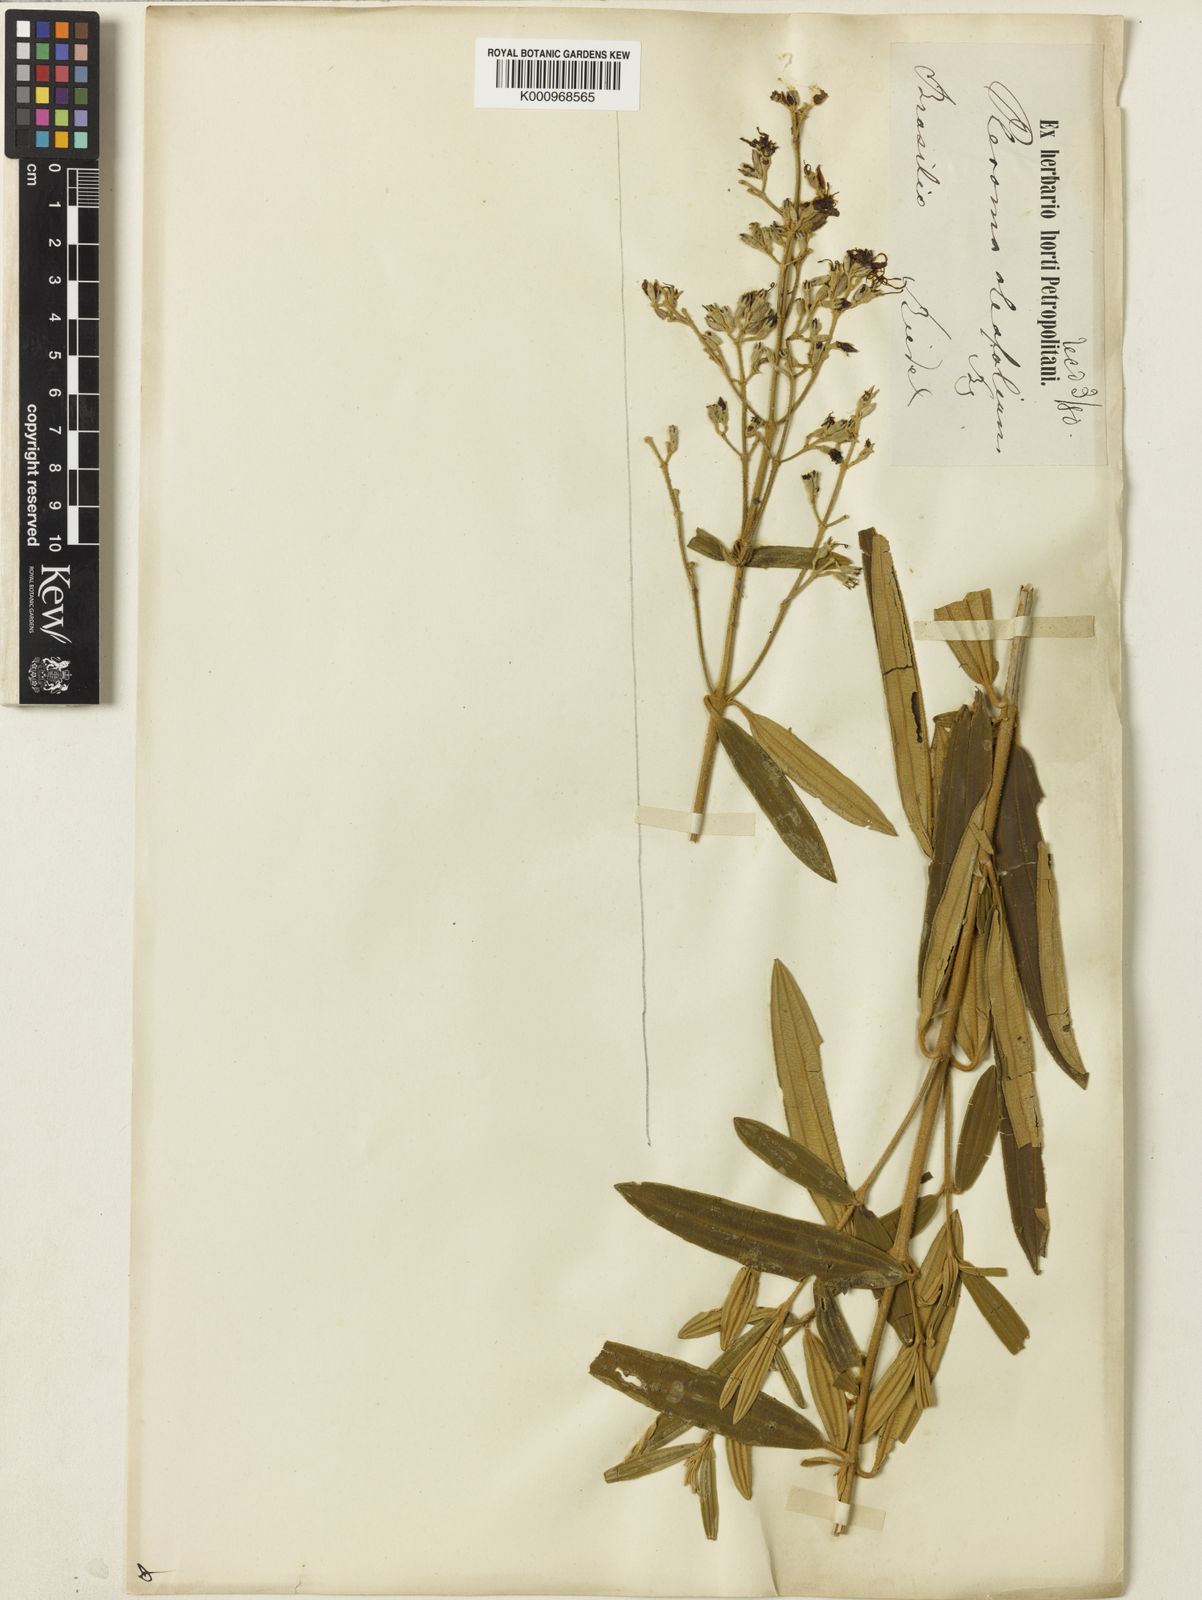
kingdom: Plantae
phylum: Tracheophyta
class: Magnoliopsida
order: Myrtales
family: Melastomataceae
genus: Pleroma
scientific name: Pleroma oleifolia
